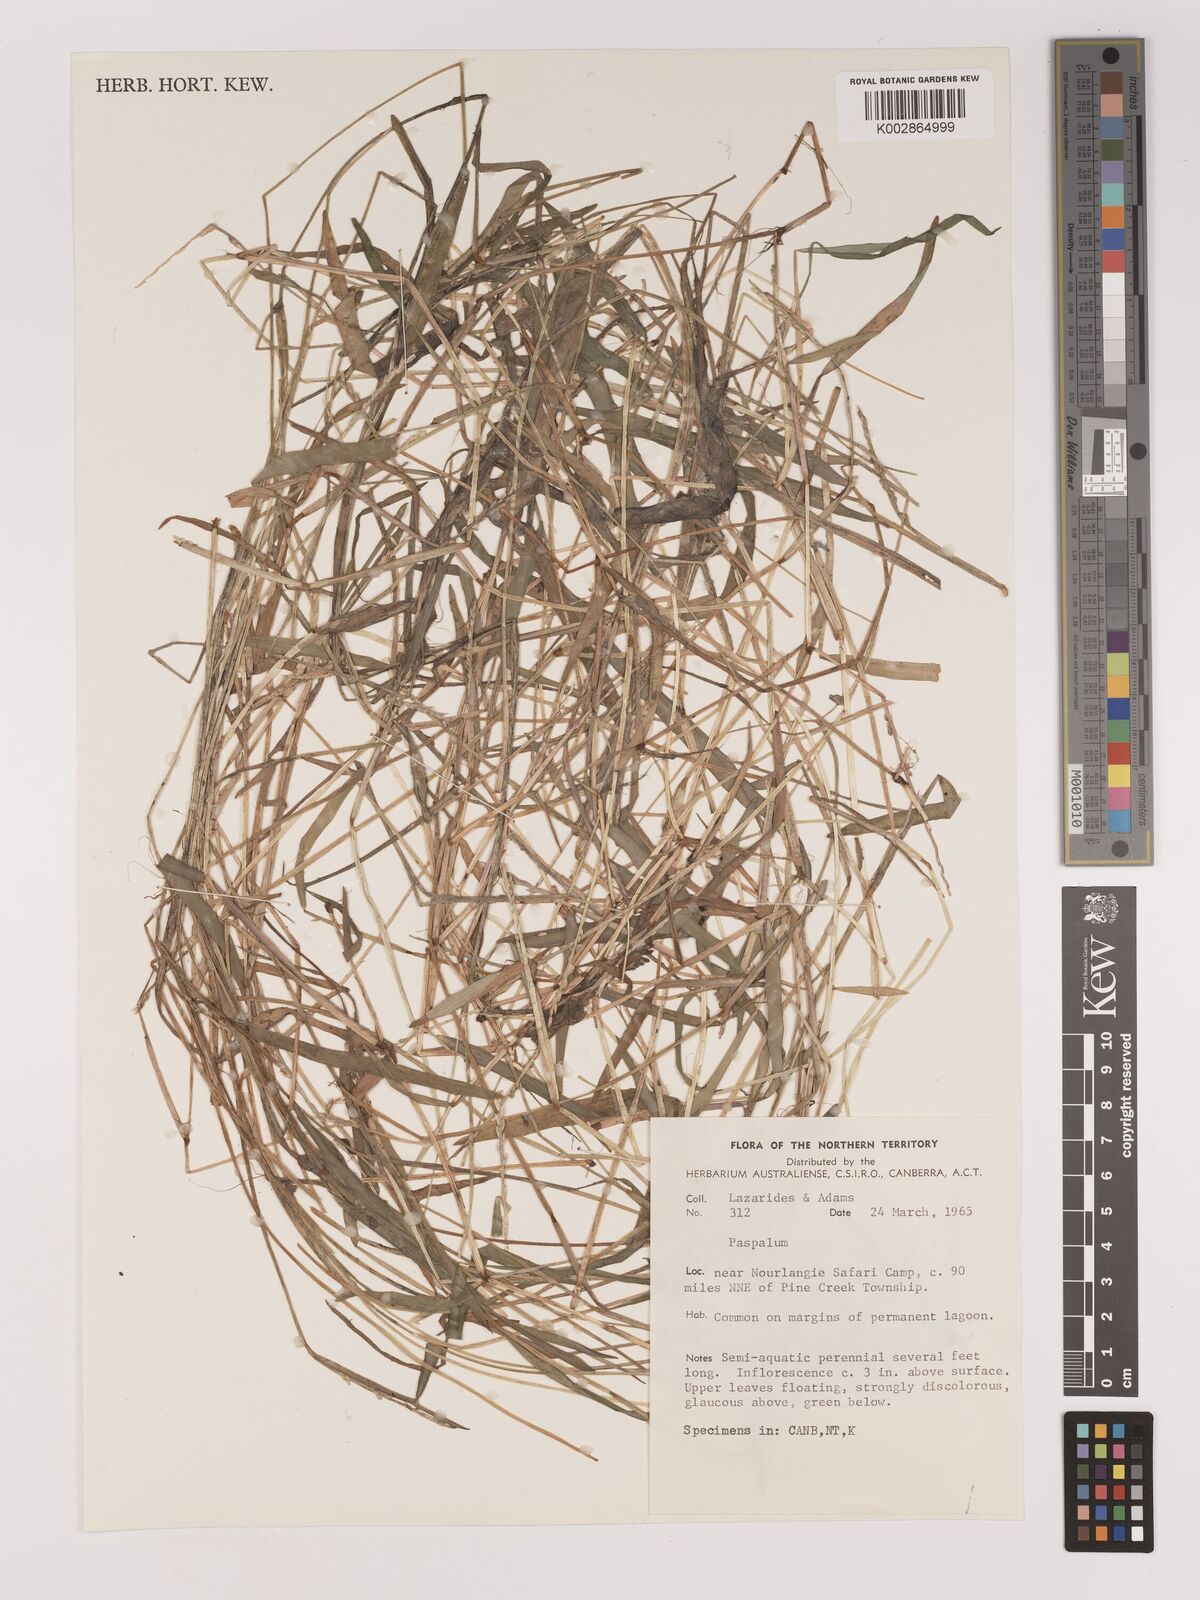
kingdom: Plantae
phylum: Tracheophyta
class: Liliopsida
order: Poales
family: Poaceae
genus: Setaria
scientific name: Setaria
